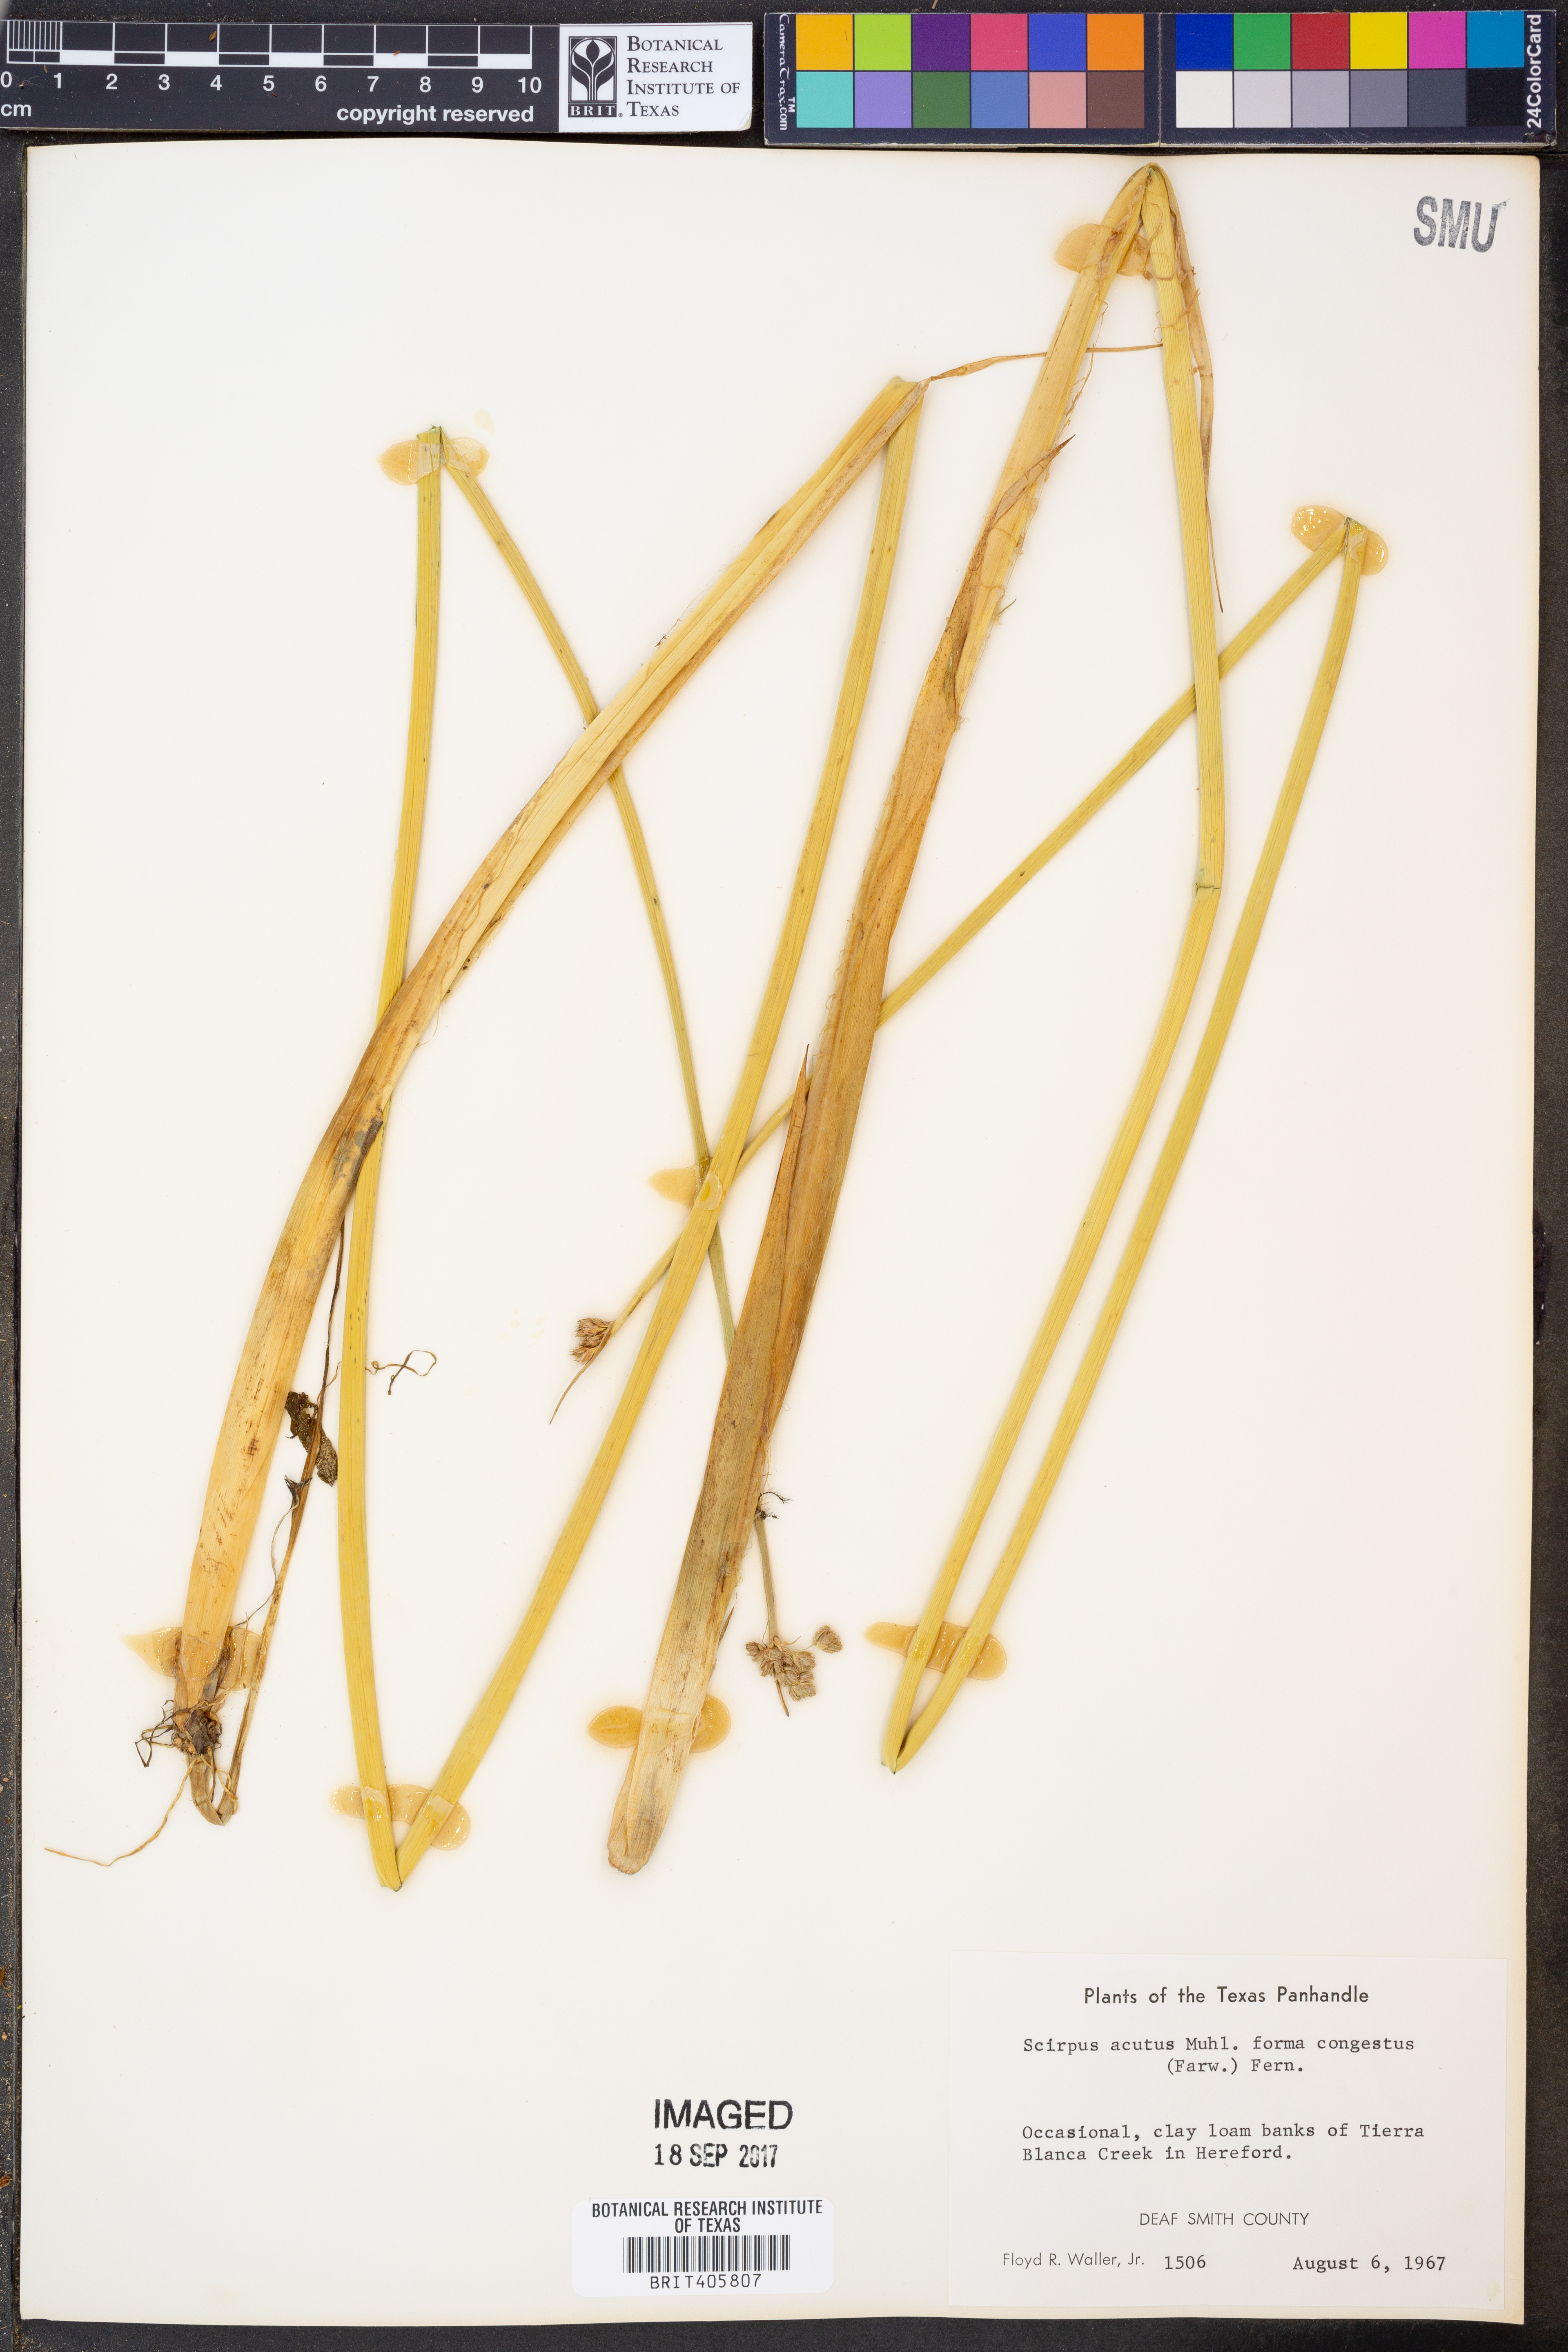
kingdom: Plantae
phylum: Tracheophyta
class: Liliopsida
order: Poales
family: Cyperaceae
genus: Schoenoplectus
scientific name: Schoenoplectus acutus
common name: Hardstem bulrush
